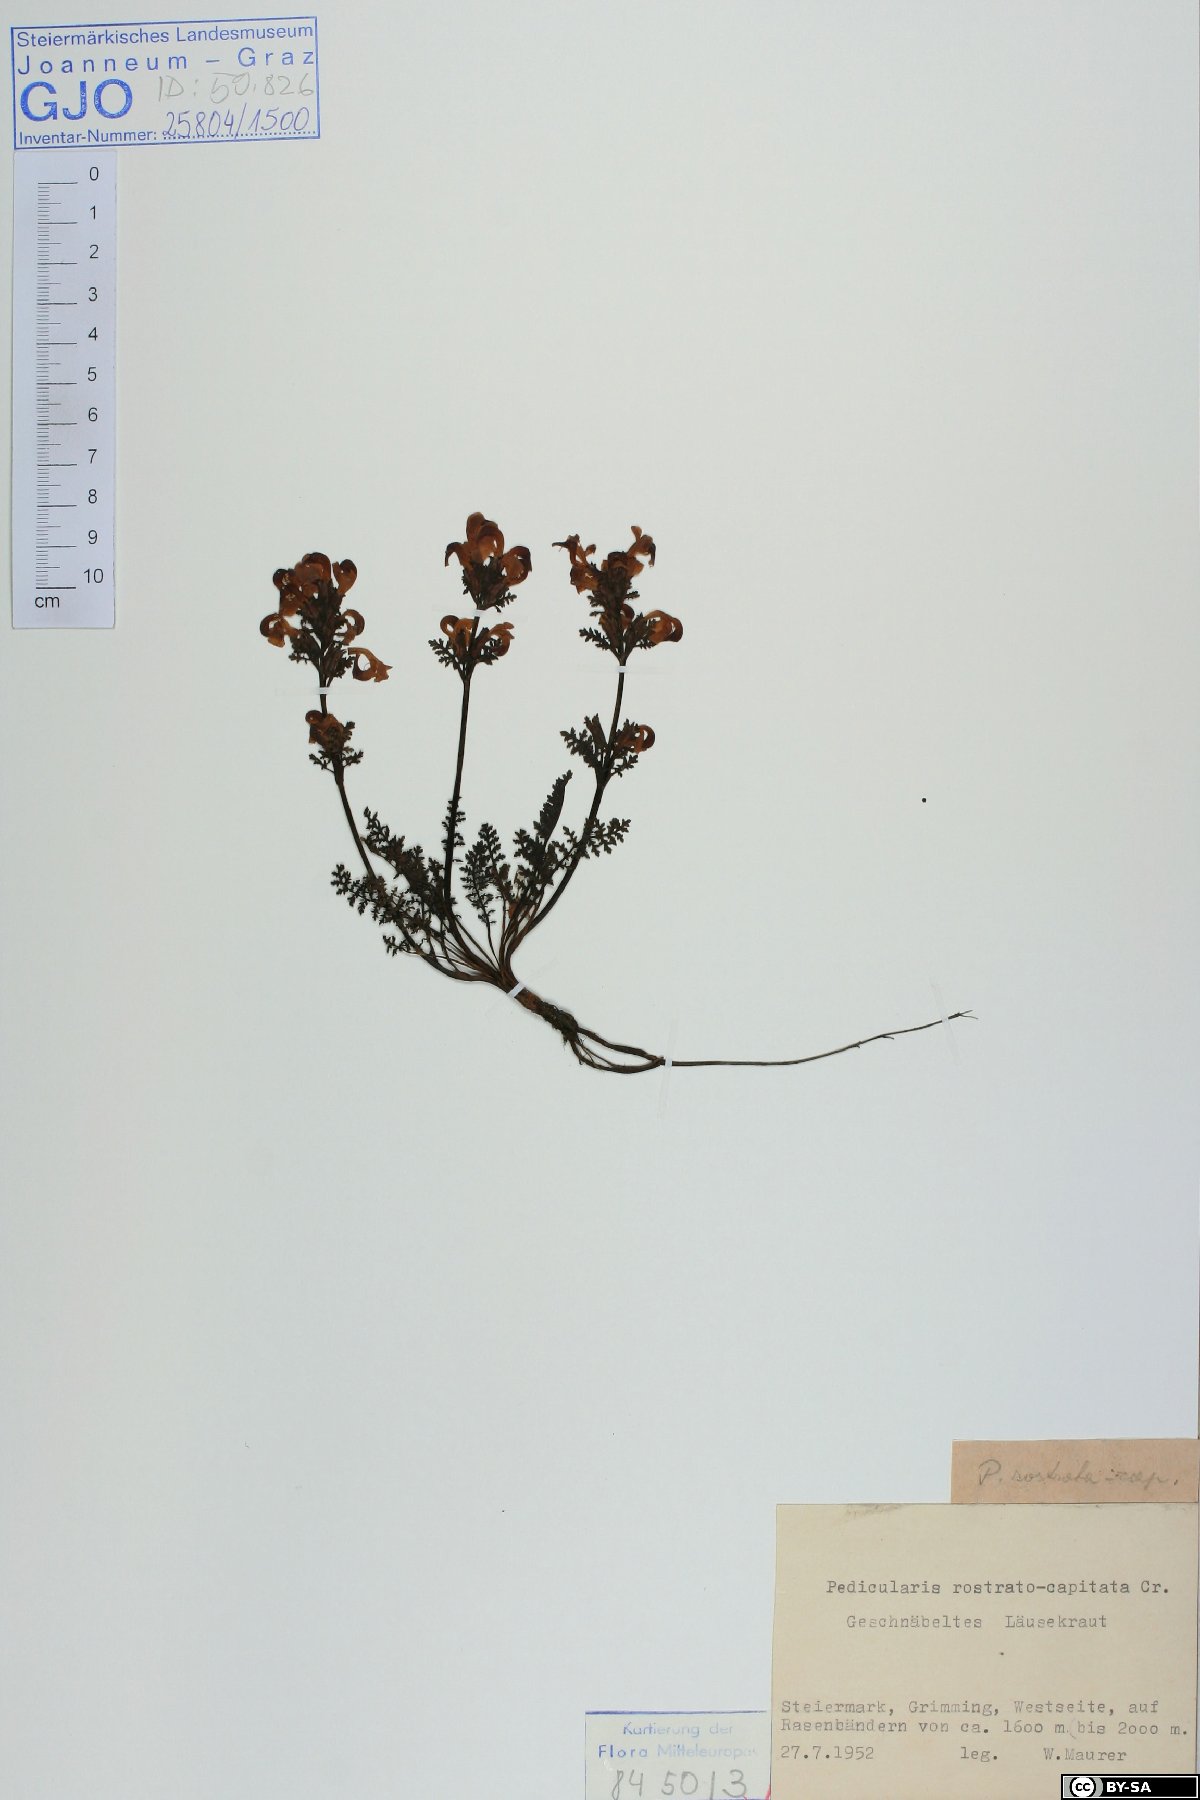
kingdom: Plantae
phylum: Tracheophyta
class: Magnoliopsida
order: Lamiales
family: Orobanchaceae
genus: Pedicularis
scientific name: Pedicularis rostratocapitata
